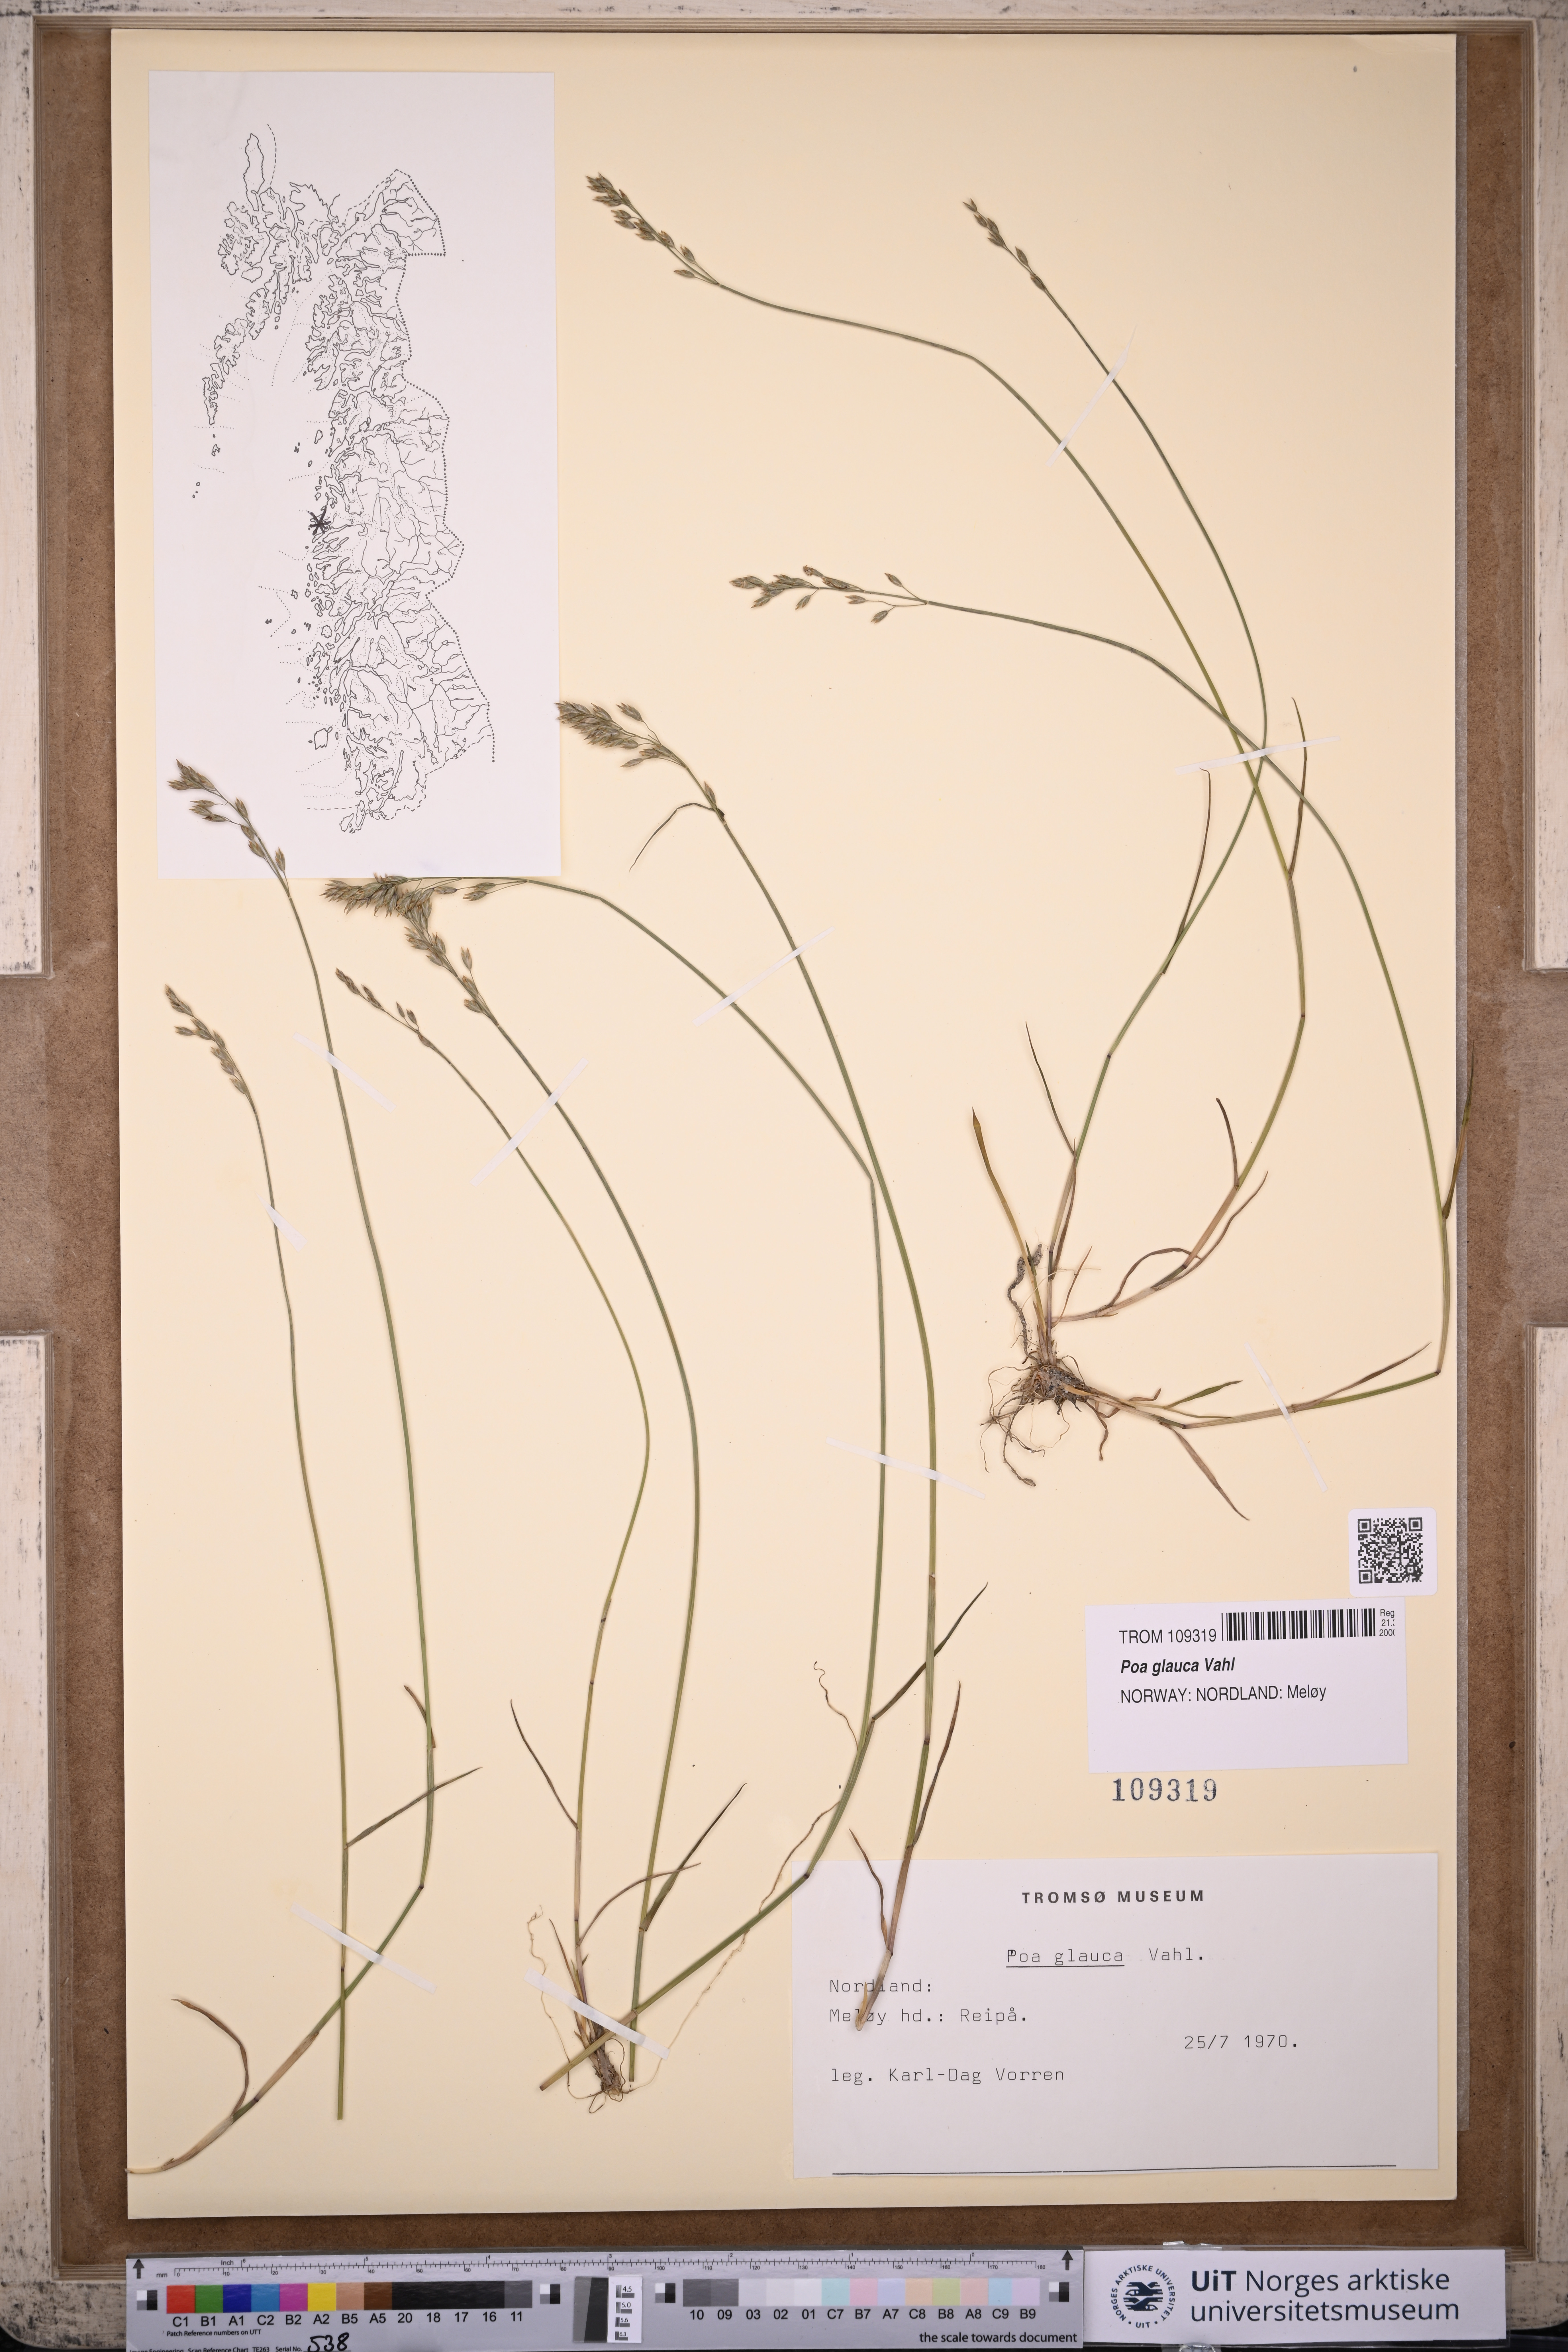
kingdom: Plantae
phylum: Tracheophyta
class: Liliopsida
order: Poales
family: Poaceae
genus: Poa
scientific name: Poa glauca
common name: Glaucous bluegrass
